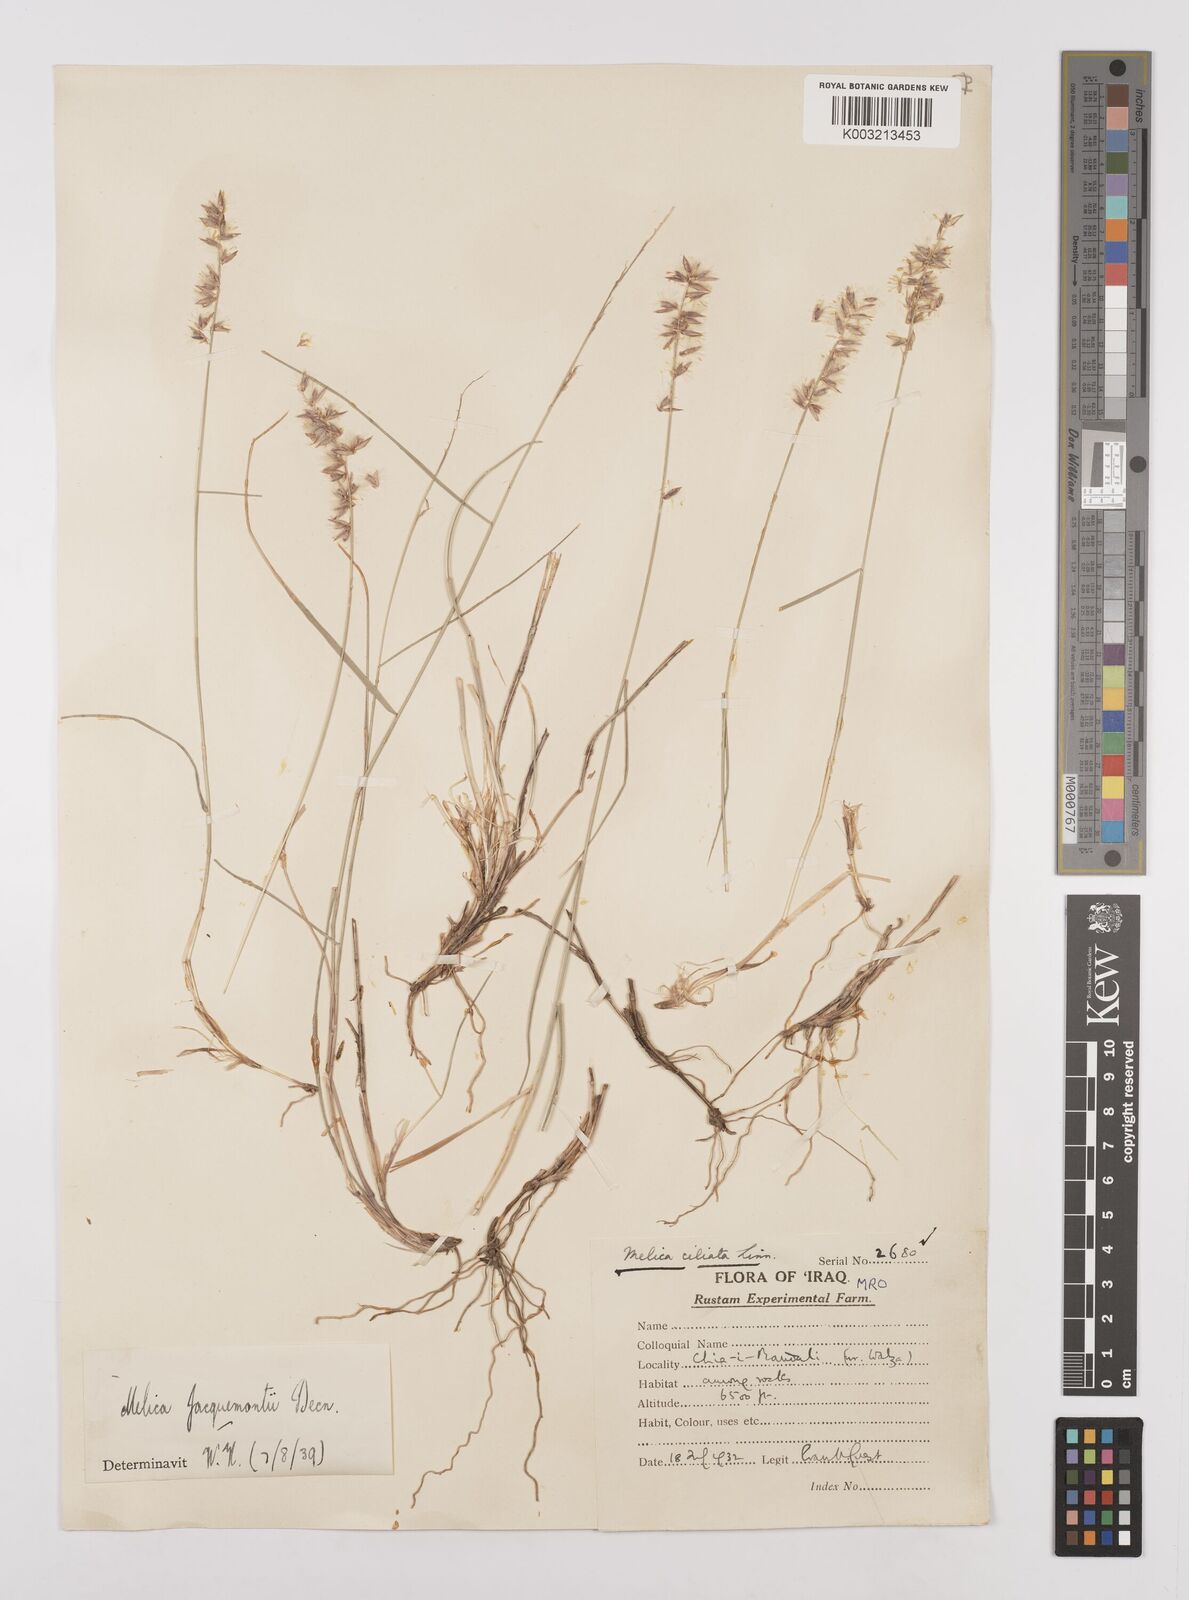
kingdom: Plantae
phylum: Tracheophyta
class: Liliopsida
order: Poales
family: Poaceae
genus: Melica
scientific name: Melica persica
